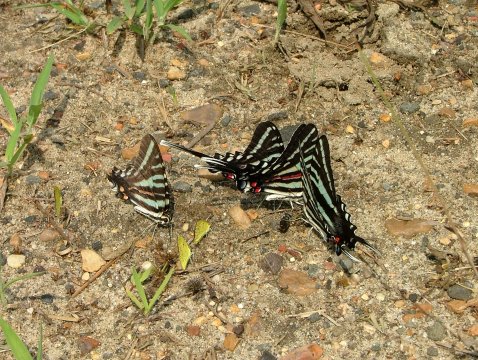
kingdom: Animalia
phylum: Arthropoda
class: Insecta
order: Lepidoptera
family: Papilionidae
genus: Protographium
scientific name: Protographium marcellus
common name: Zebra Swallowtail
